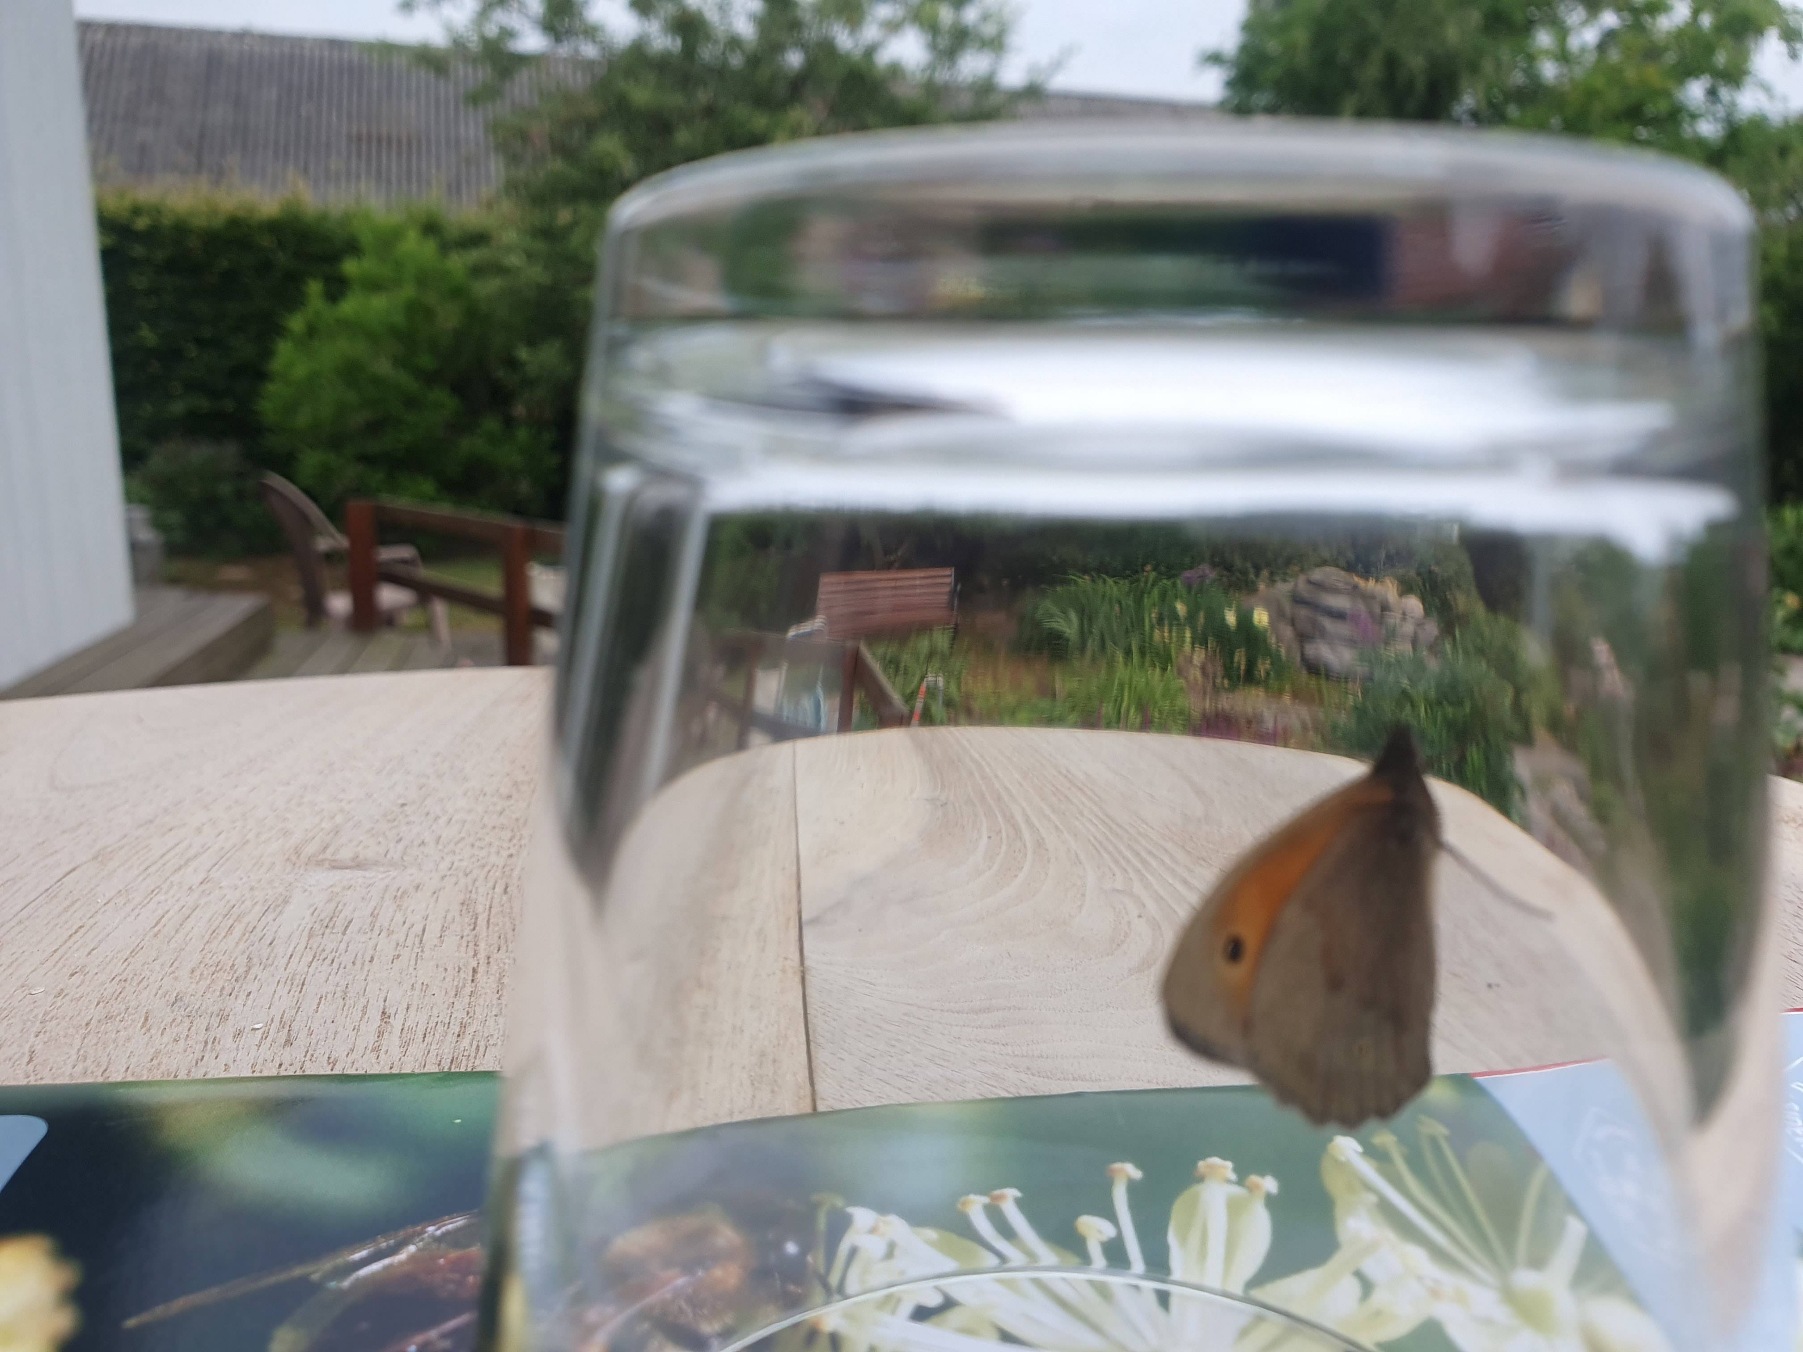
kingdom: Animalia
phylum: Arthropoda
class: Insecta
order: Lepidoptera
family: Nymphalidae
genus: Maniola
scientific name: Maniola jurtina
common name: Græsrandøje
